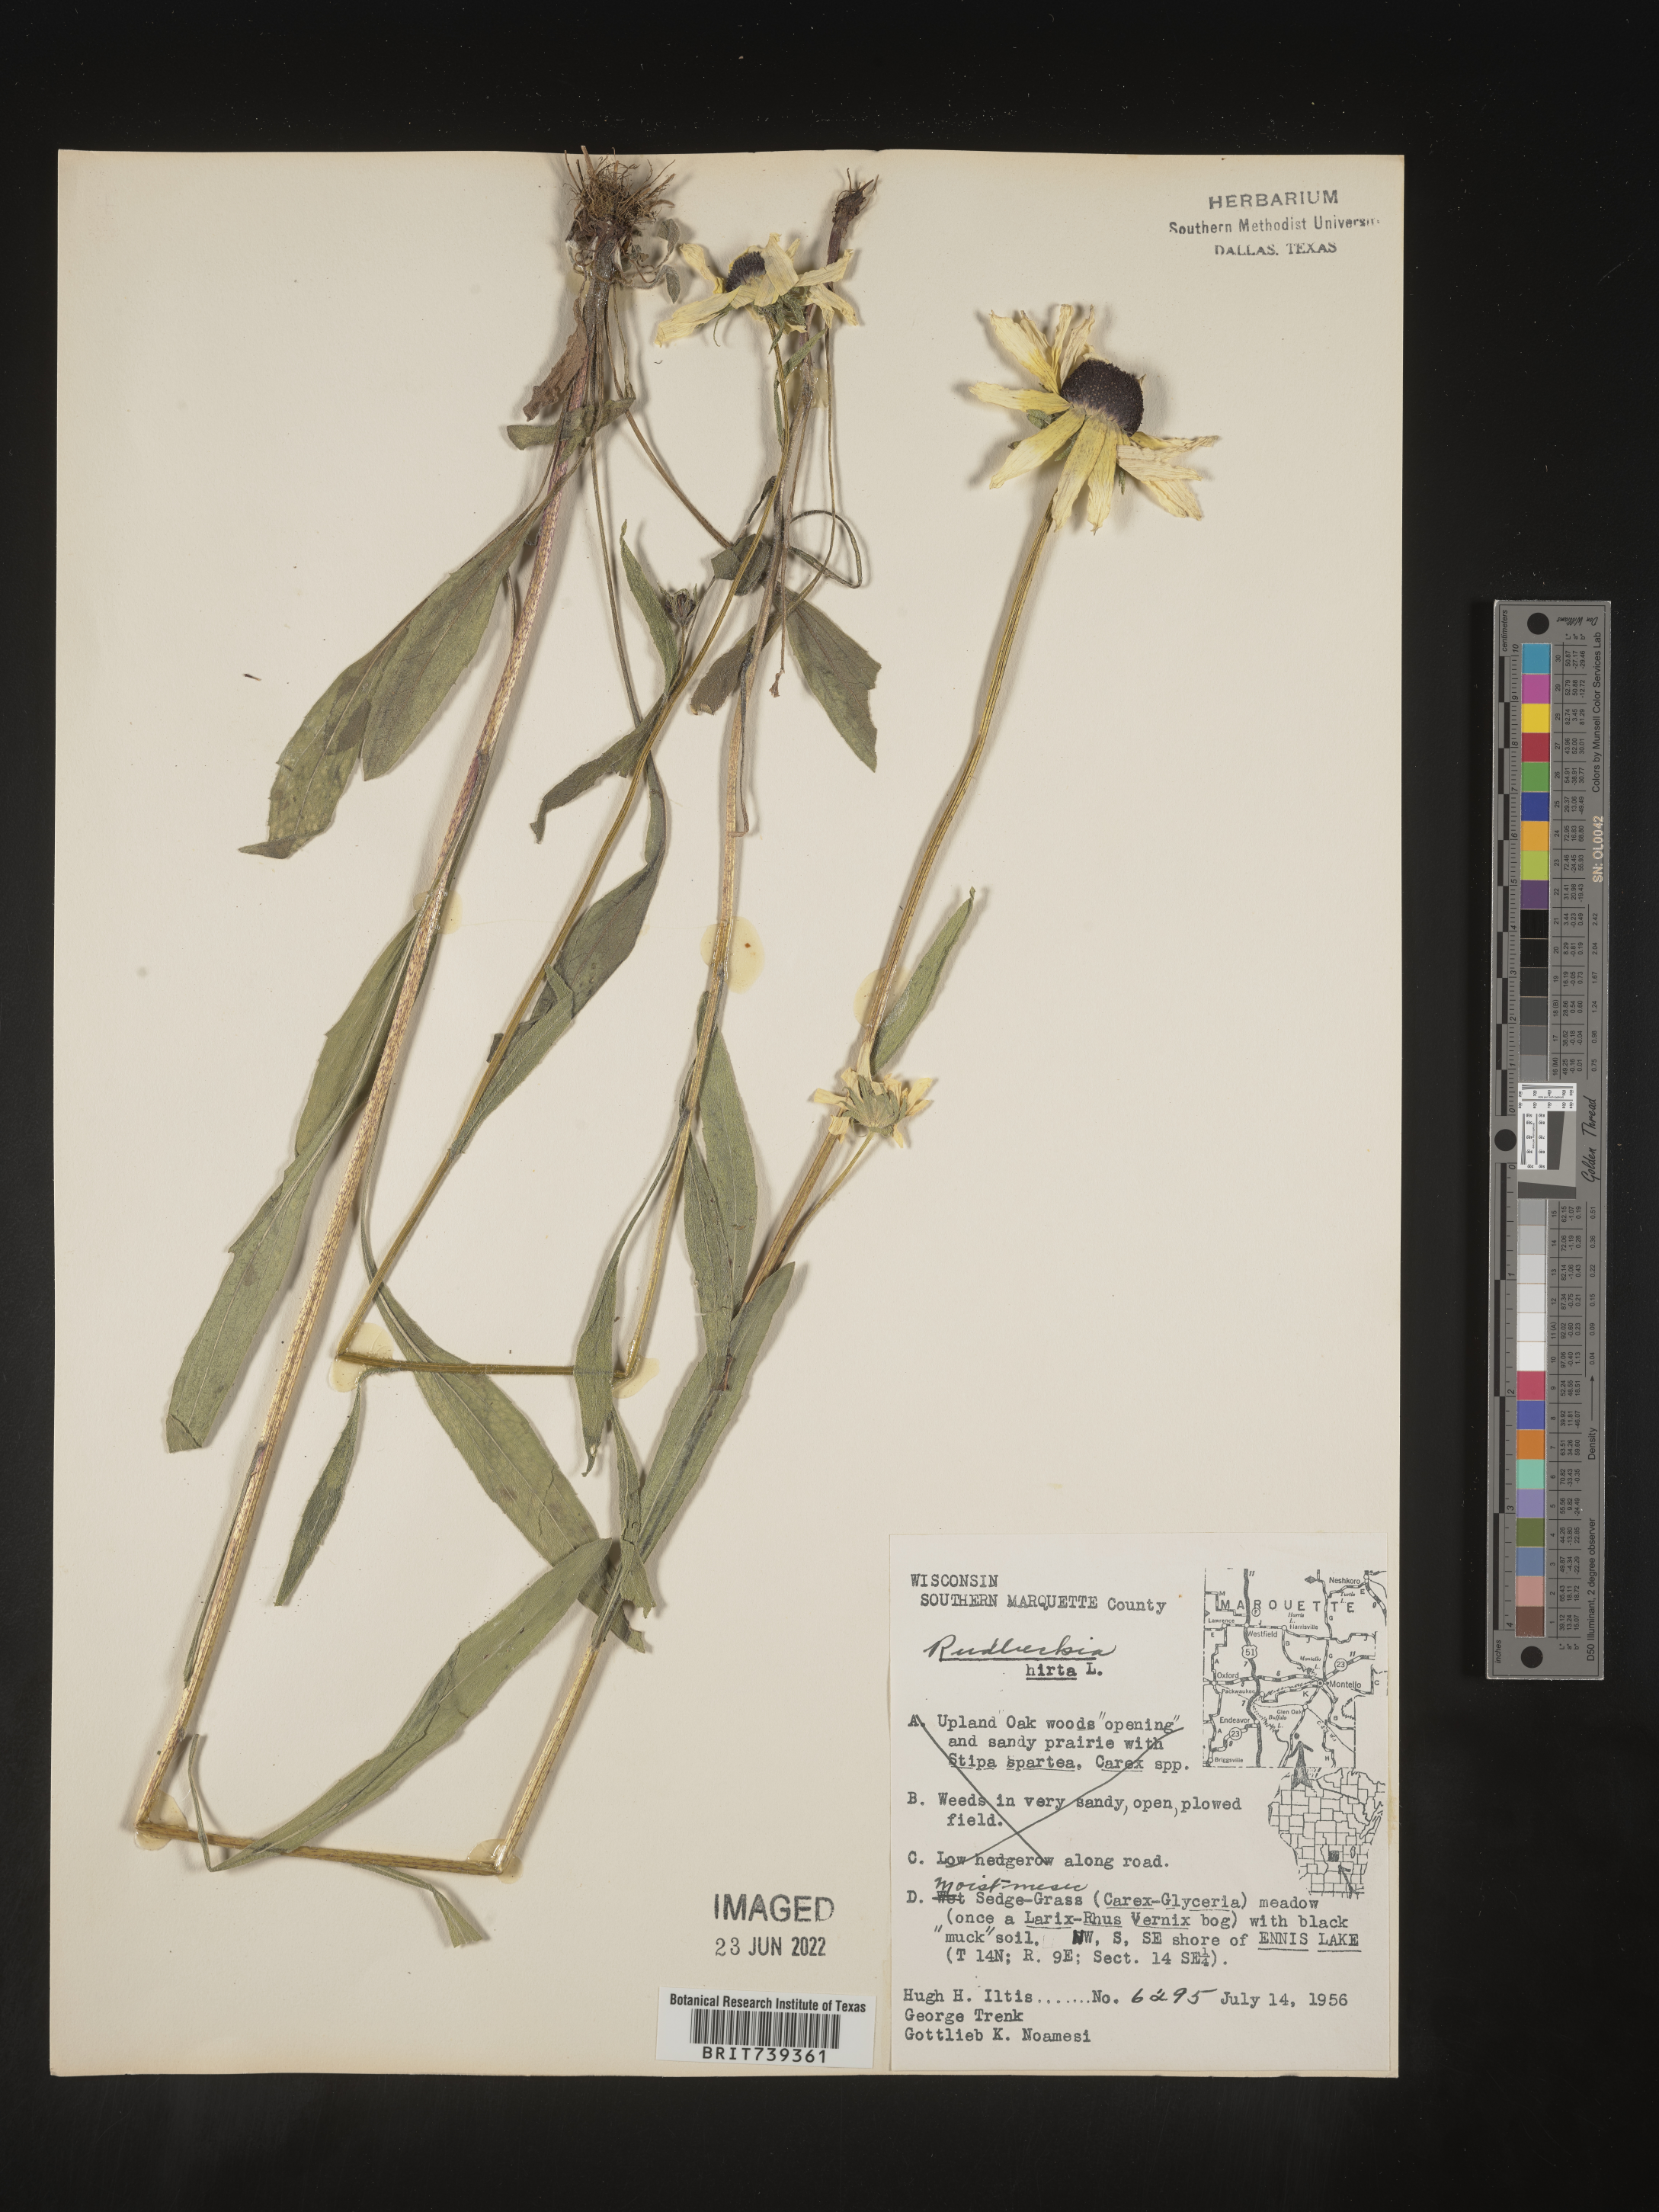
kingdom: Plantae
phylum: Tracheophyta
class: Magnoliopsida
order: Asterales
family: Asteraceae
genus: Rudbeckia
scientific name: Rudbeckia hirta
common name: Black-eyed-susan
